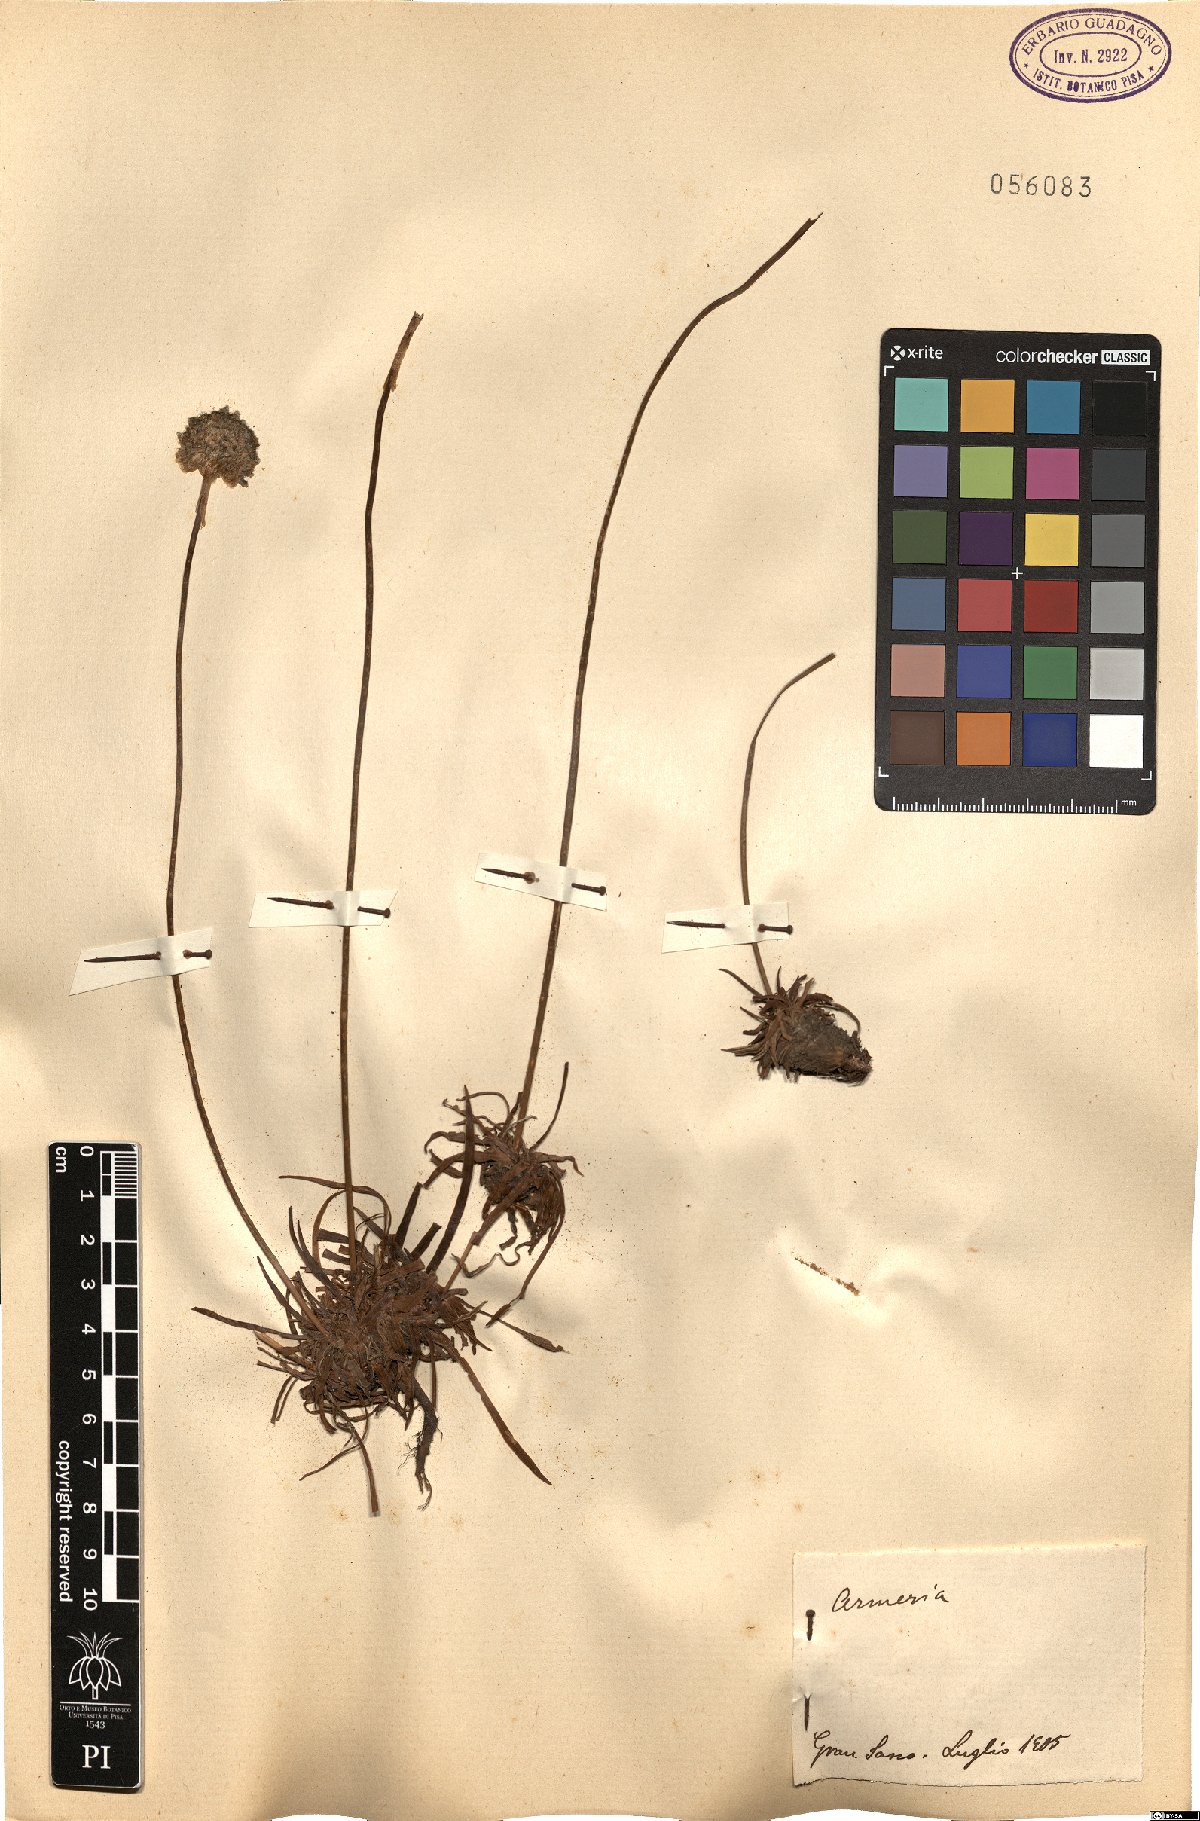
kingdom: Plantae
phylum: Tracheophyta
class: Magnoliopsida
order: Caryophyllales
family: Plumbaginaceae
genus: Armeria
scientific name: Armeria
